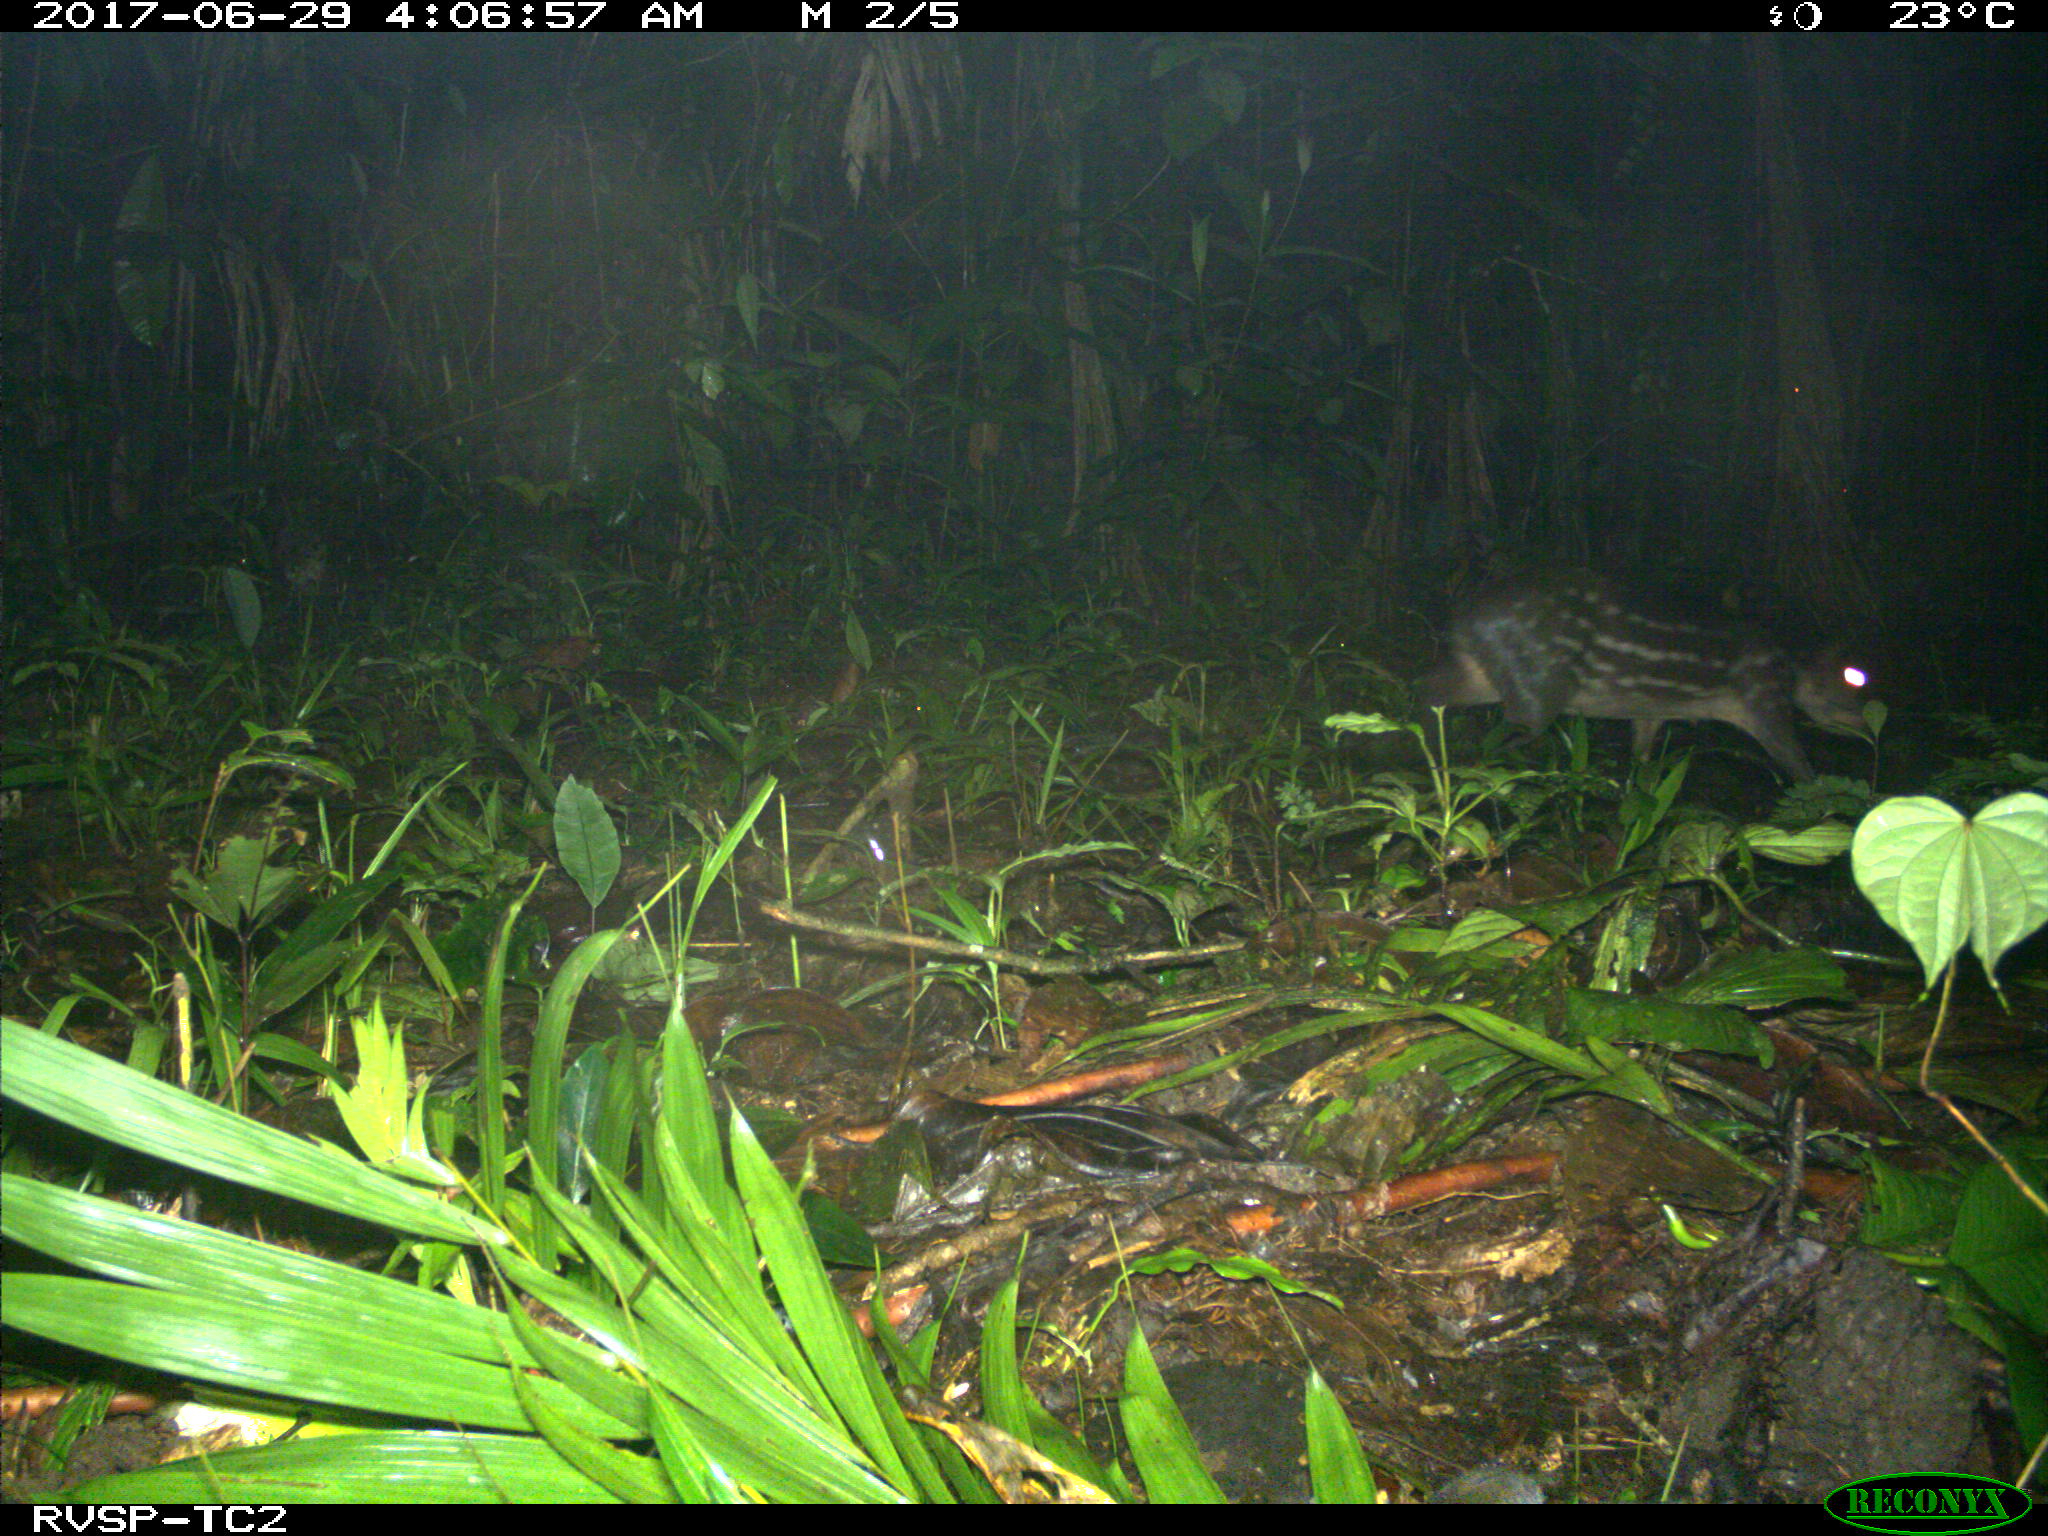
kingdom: Animalia
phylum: Chordata
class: Mammalia
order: Rodentia
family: Cuniculidae
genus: Cuniculus
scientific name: Cuniculus paca
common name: Lowland paca
